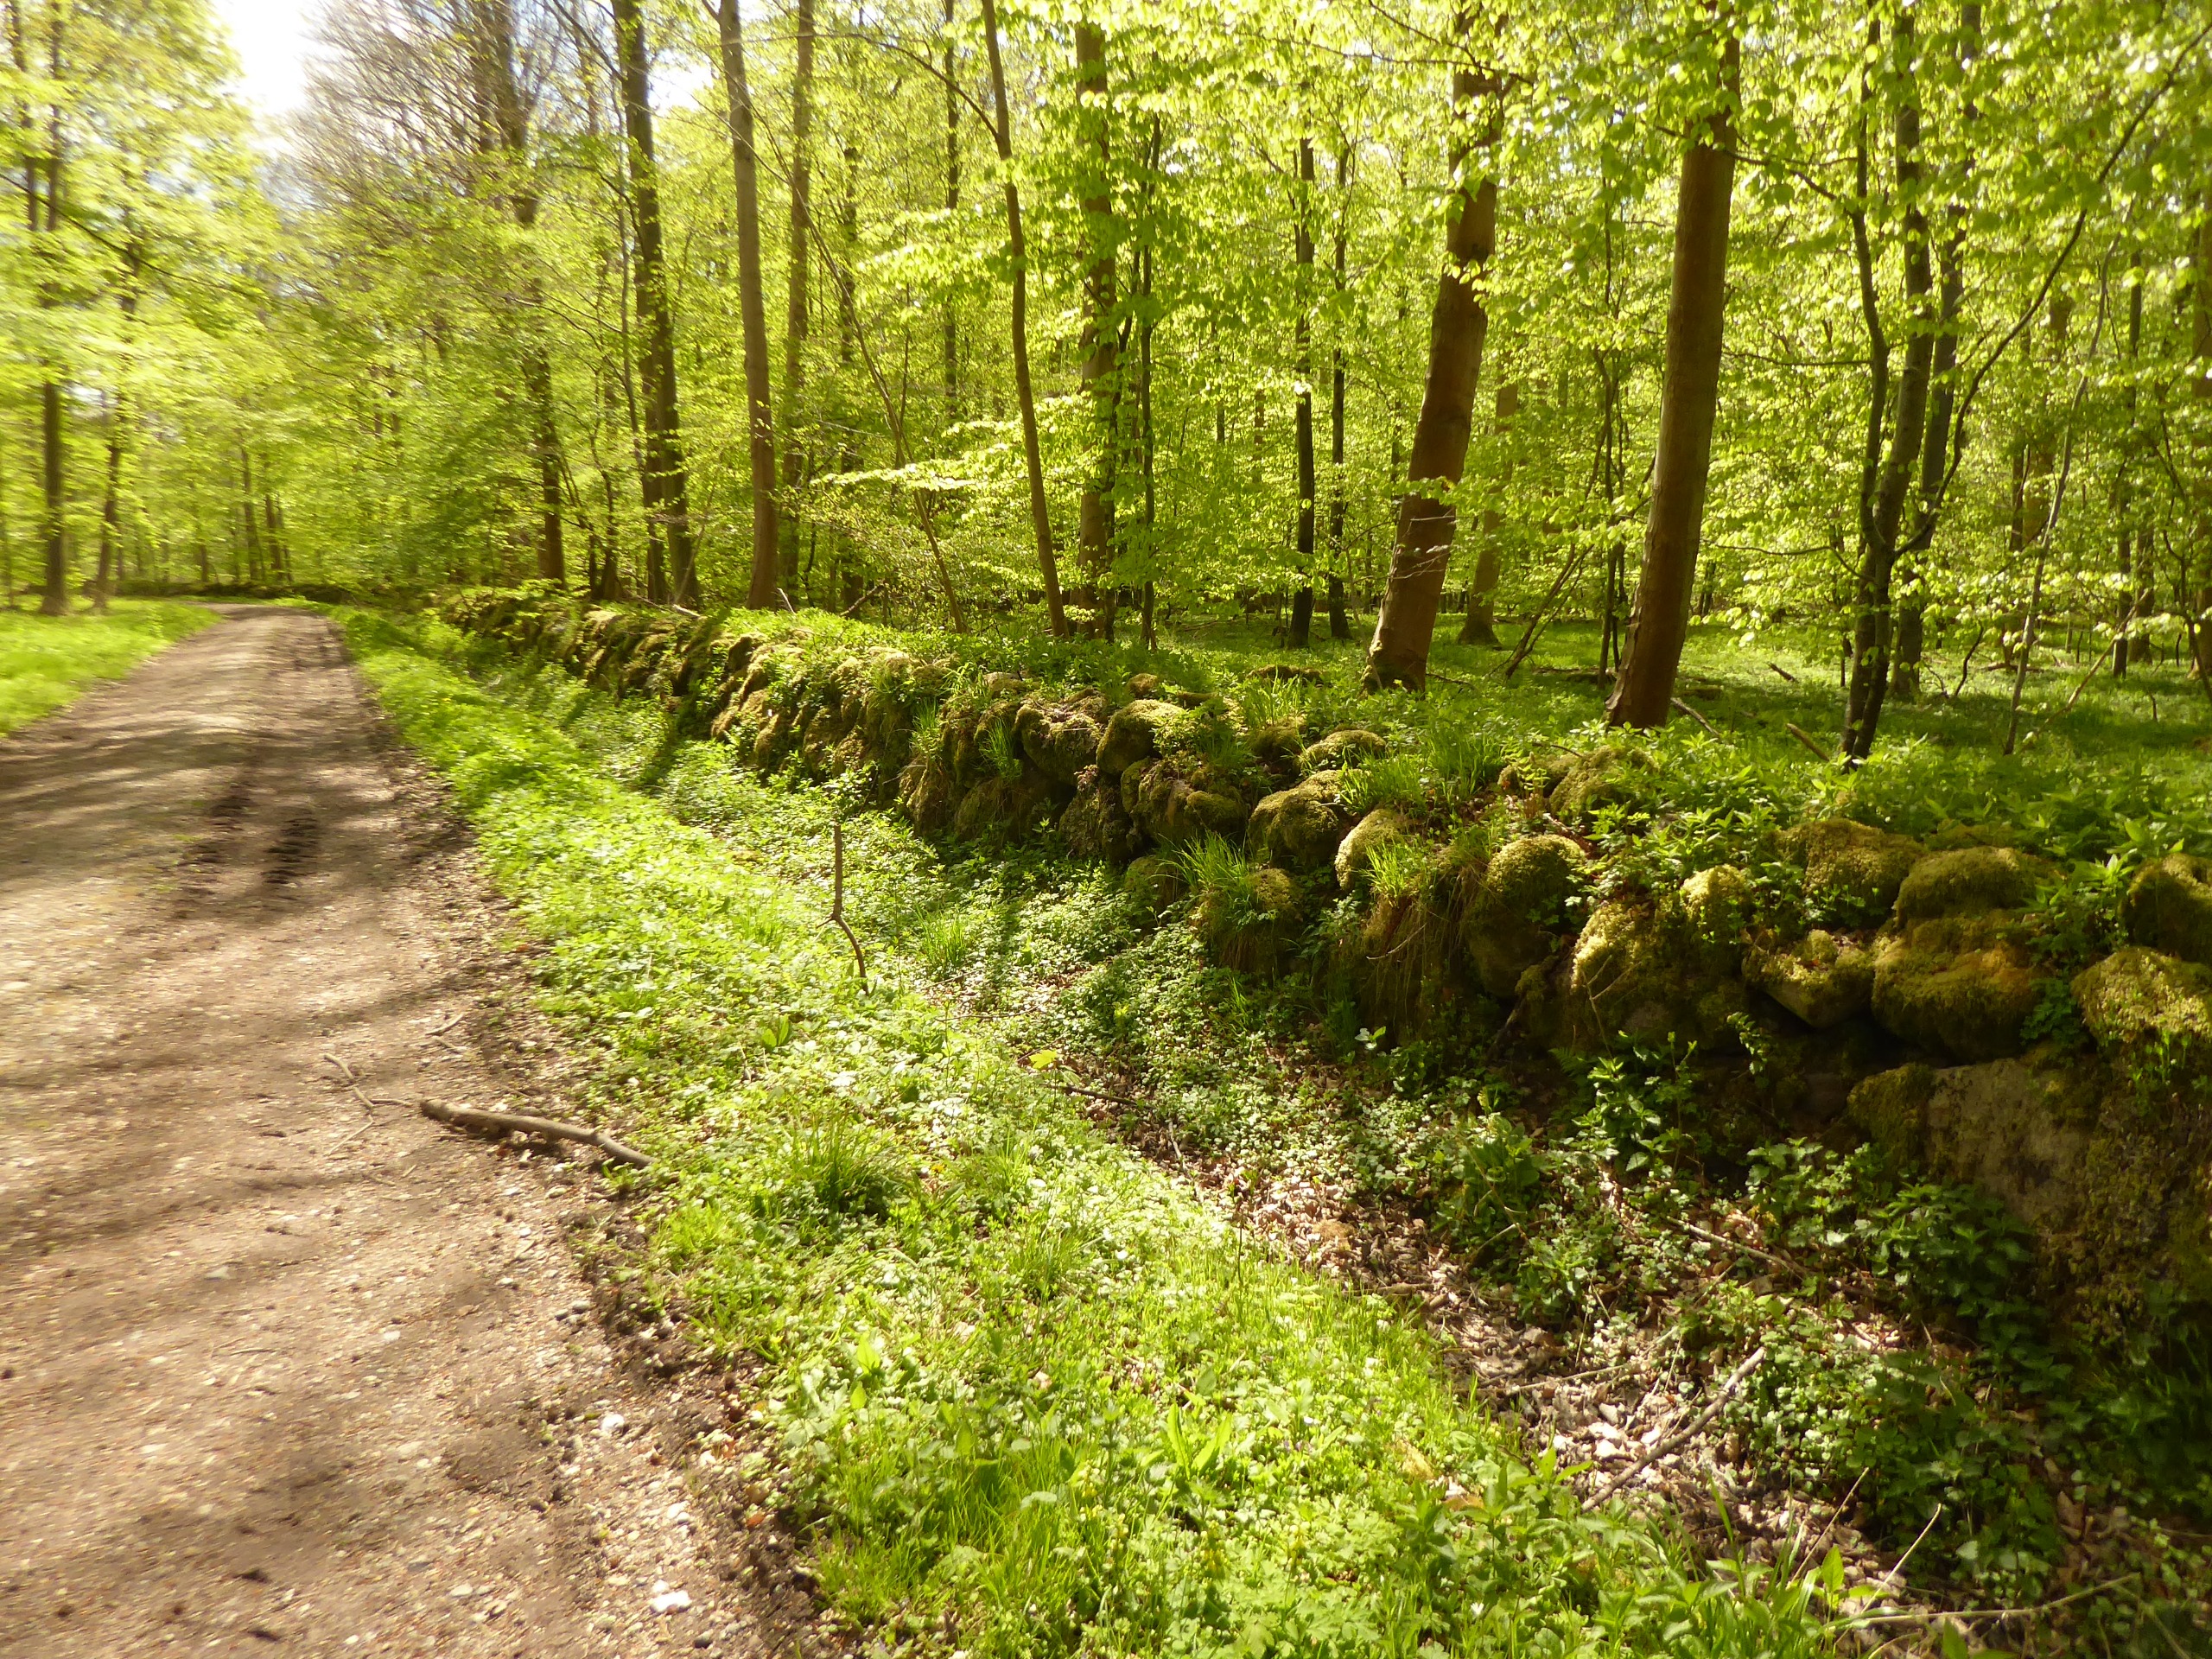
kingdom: Plantae
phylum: Tracheophyta
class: Polypodiopsida
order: Polypodiales
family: Cystopteridaceae
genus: Cystopteris
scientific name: Cystopteris fragilis
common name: Bægerbregne
